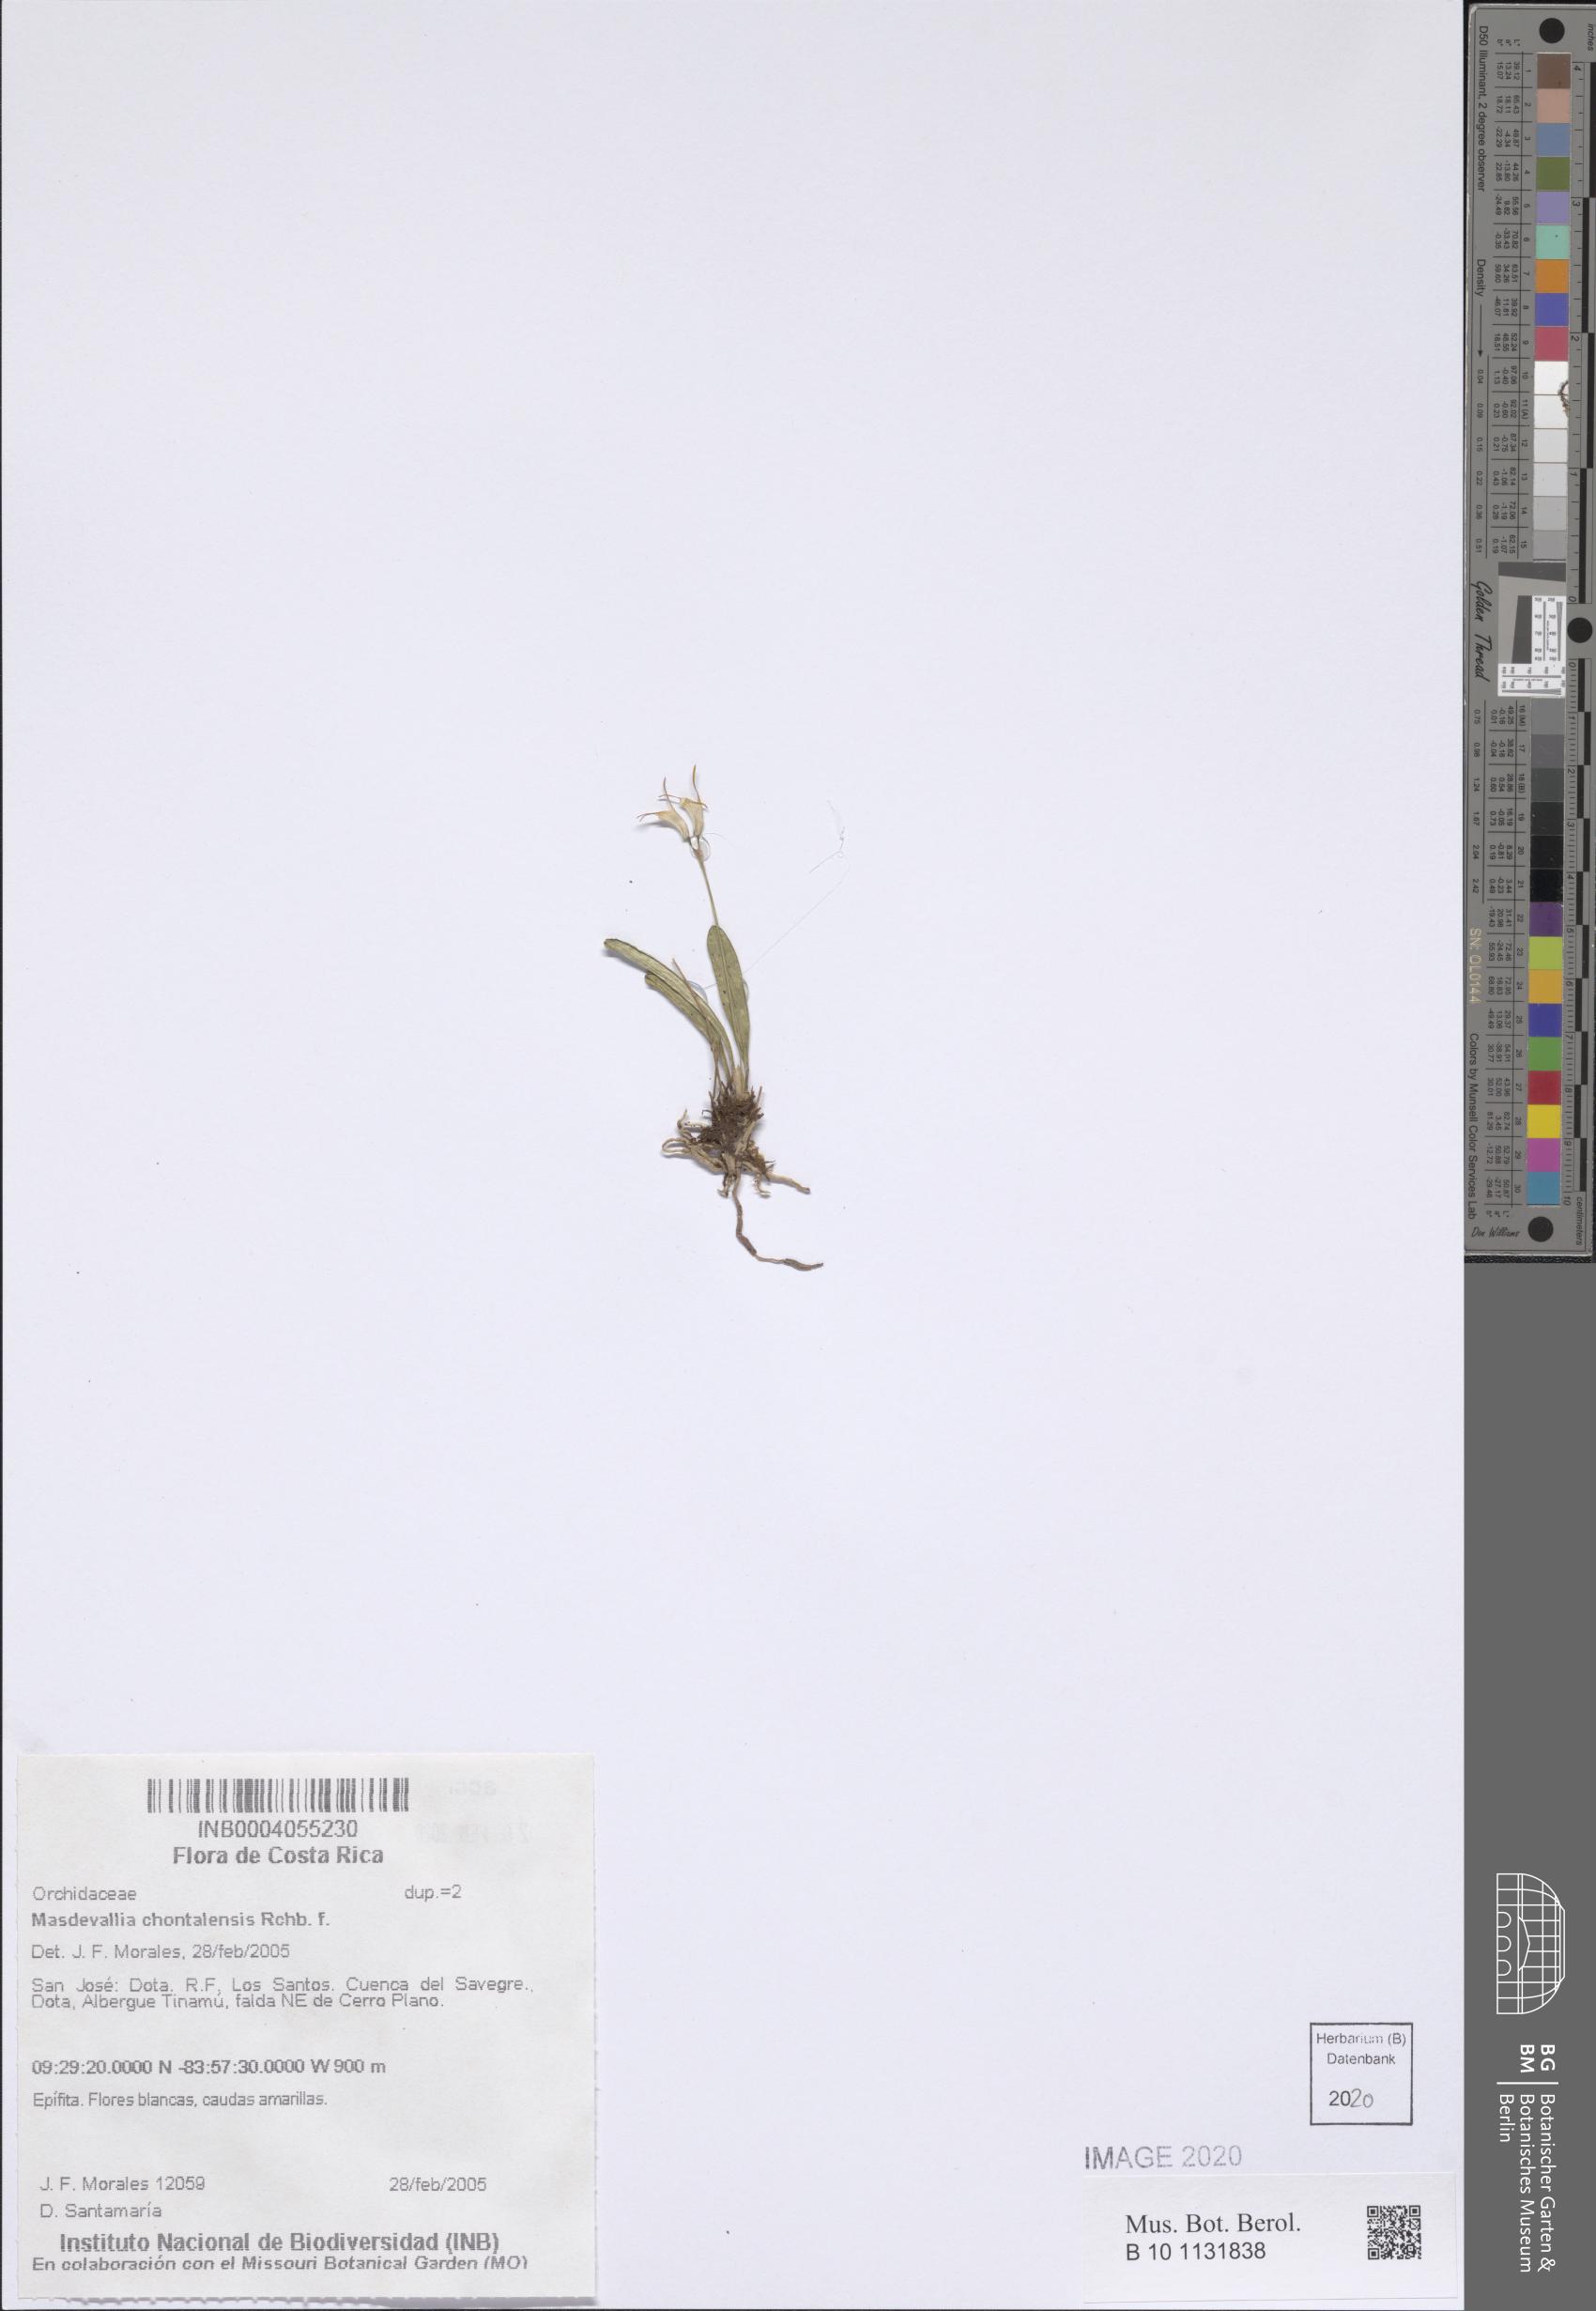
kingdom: Plantae
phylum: Tracheophyta
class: Liliopsida
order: Asparagales
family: Orchidaceae
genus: Masdevallia
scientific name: Masdevallia chontalensis
